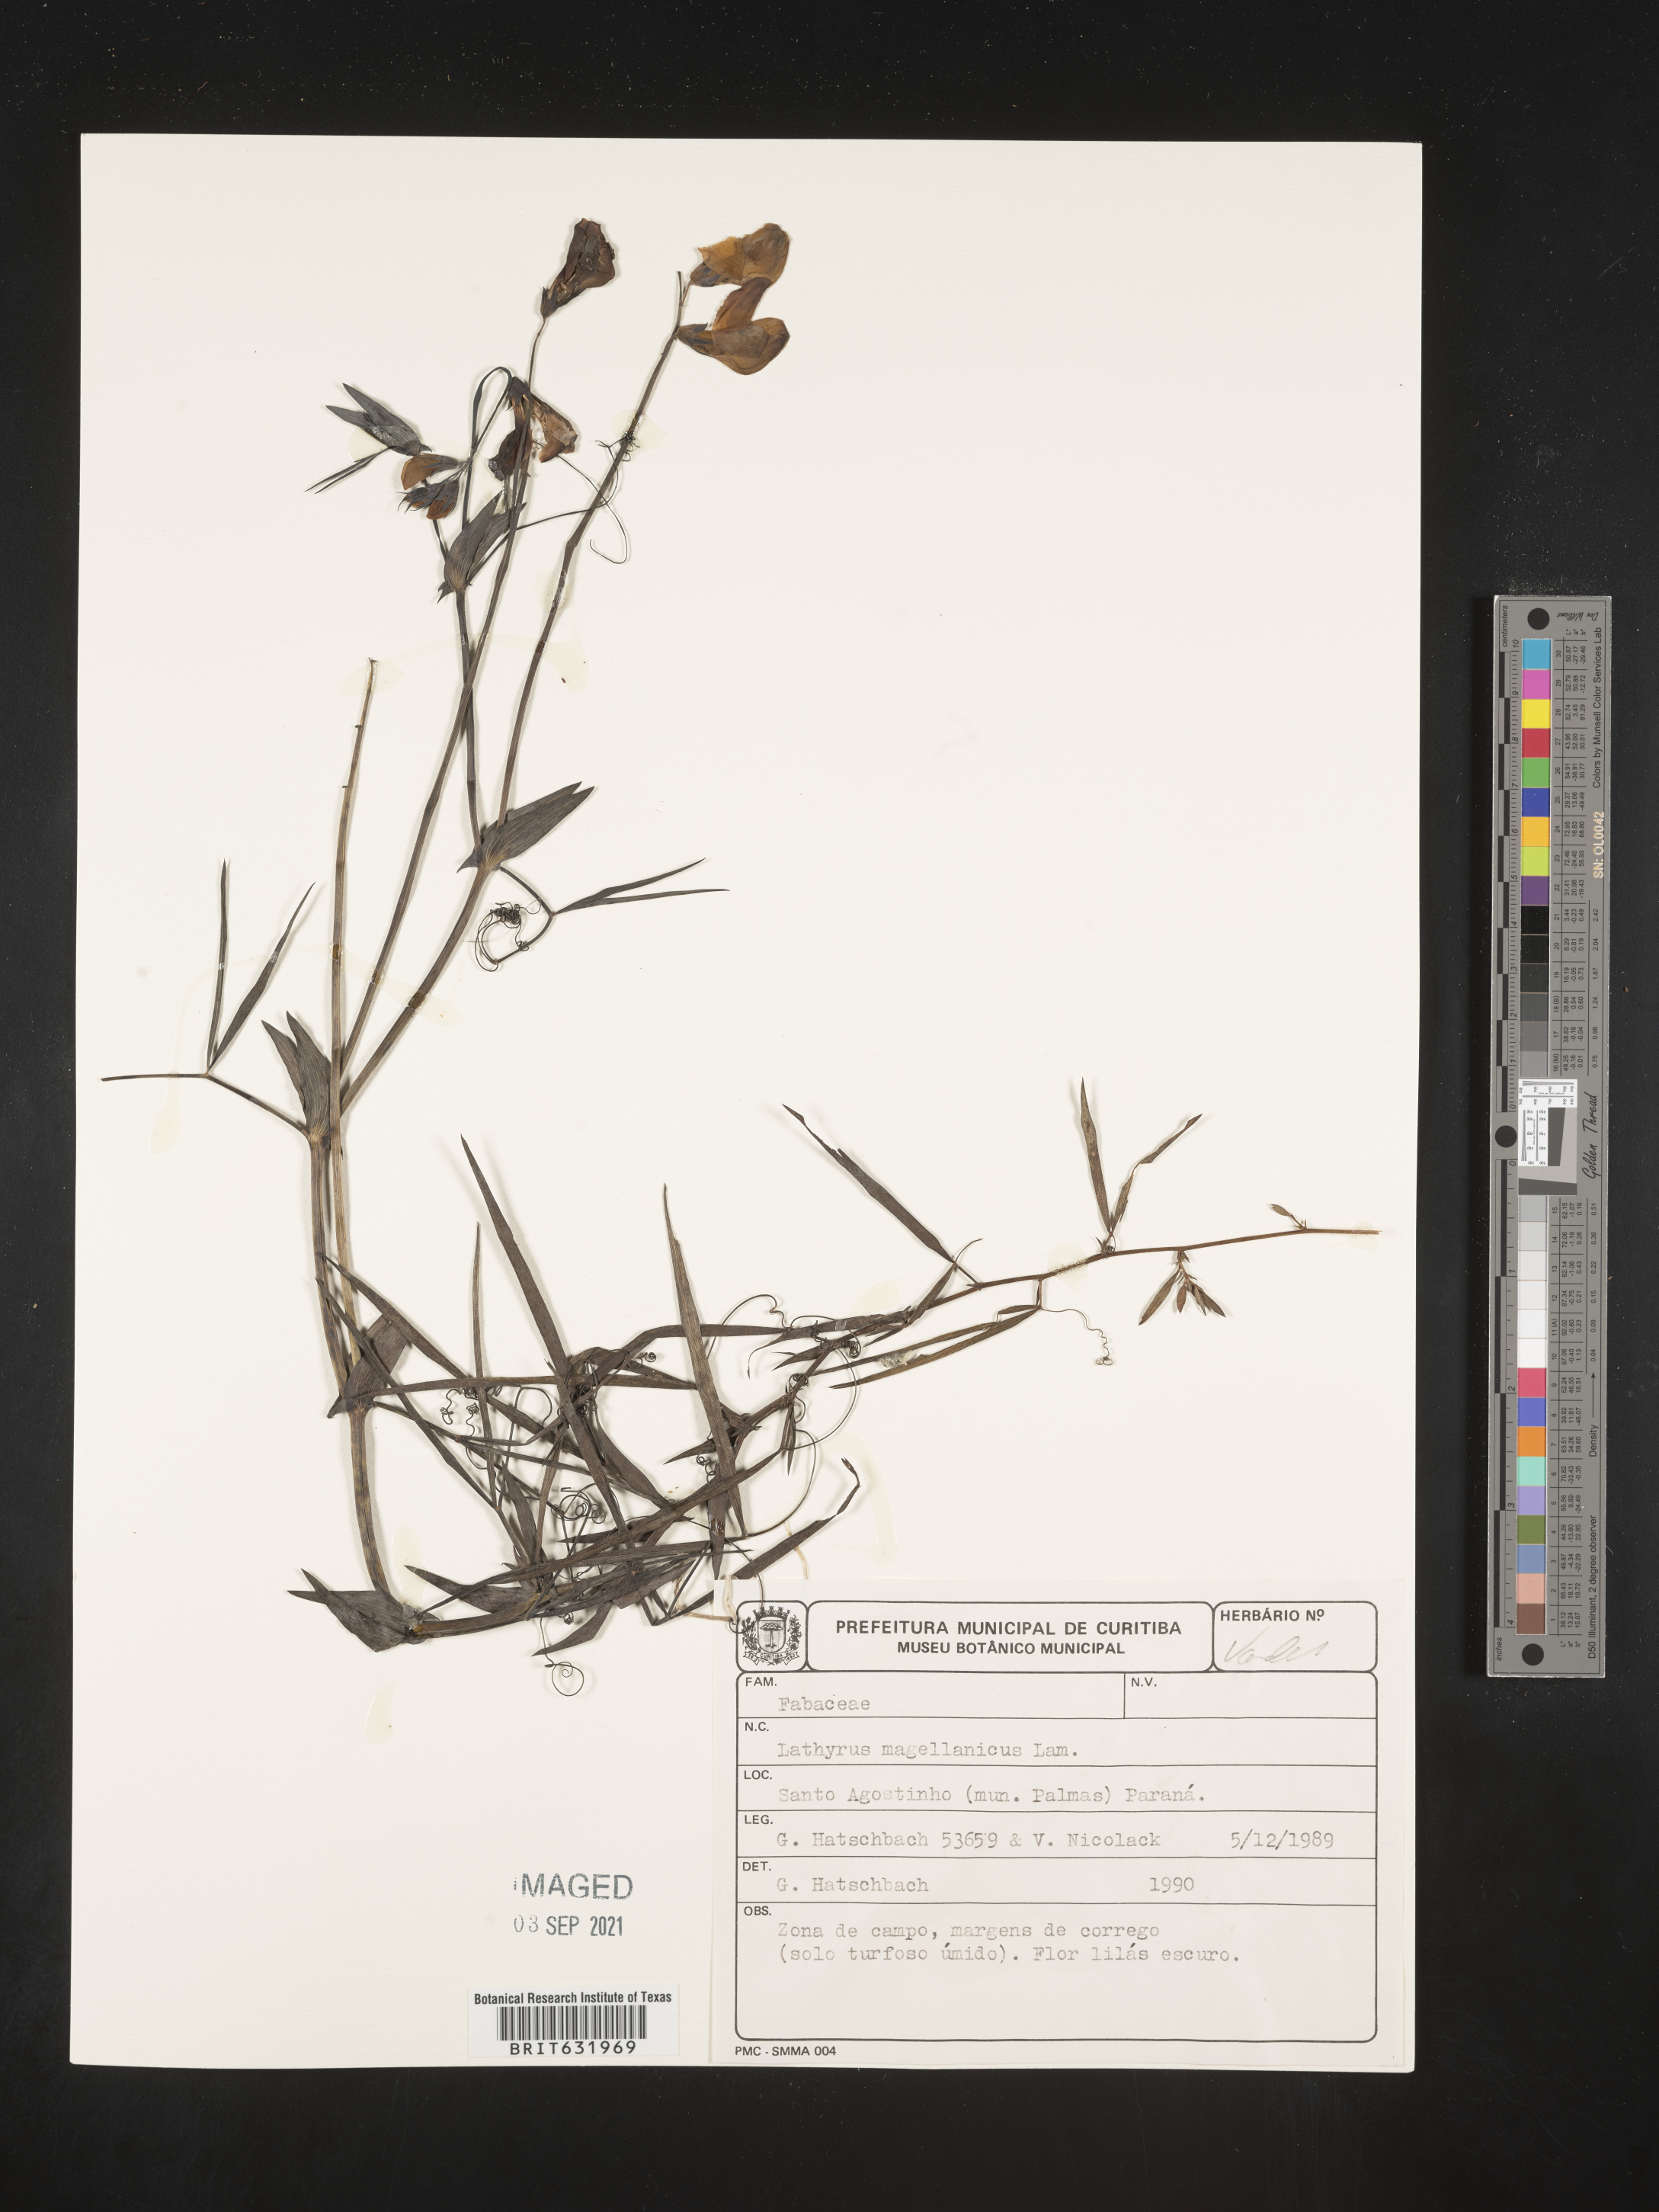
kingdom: Plantae
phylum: Tracheophyta
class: Magnoliopsida
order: Fabales
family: Fabaceae
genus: Lathyrus
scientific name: Lathyrus
